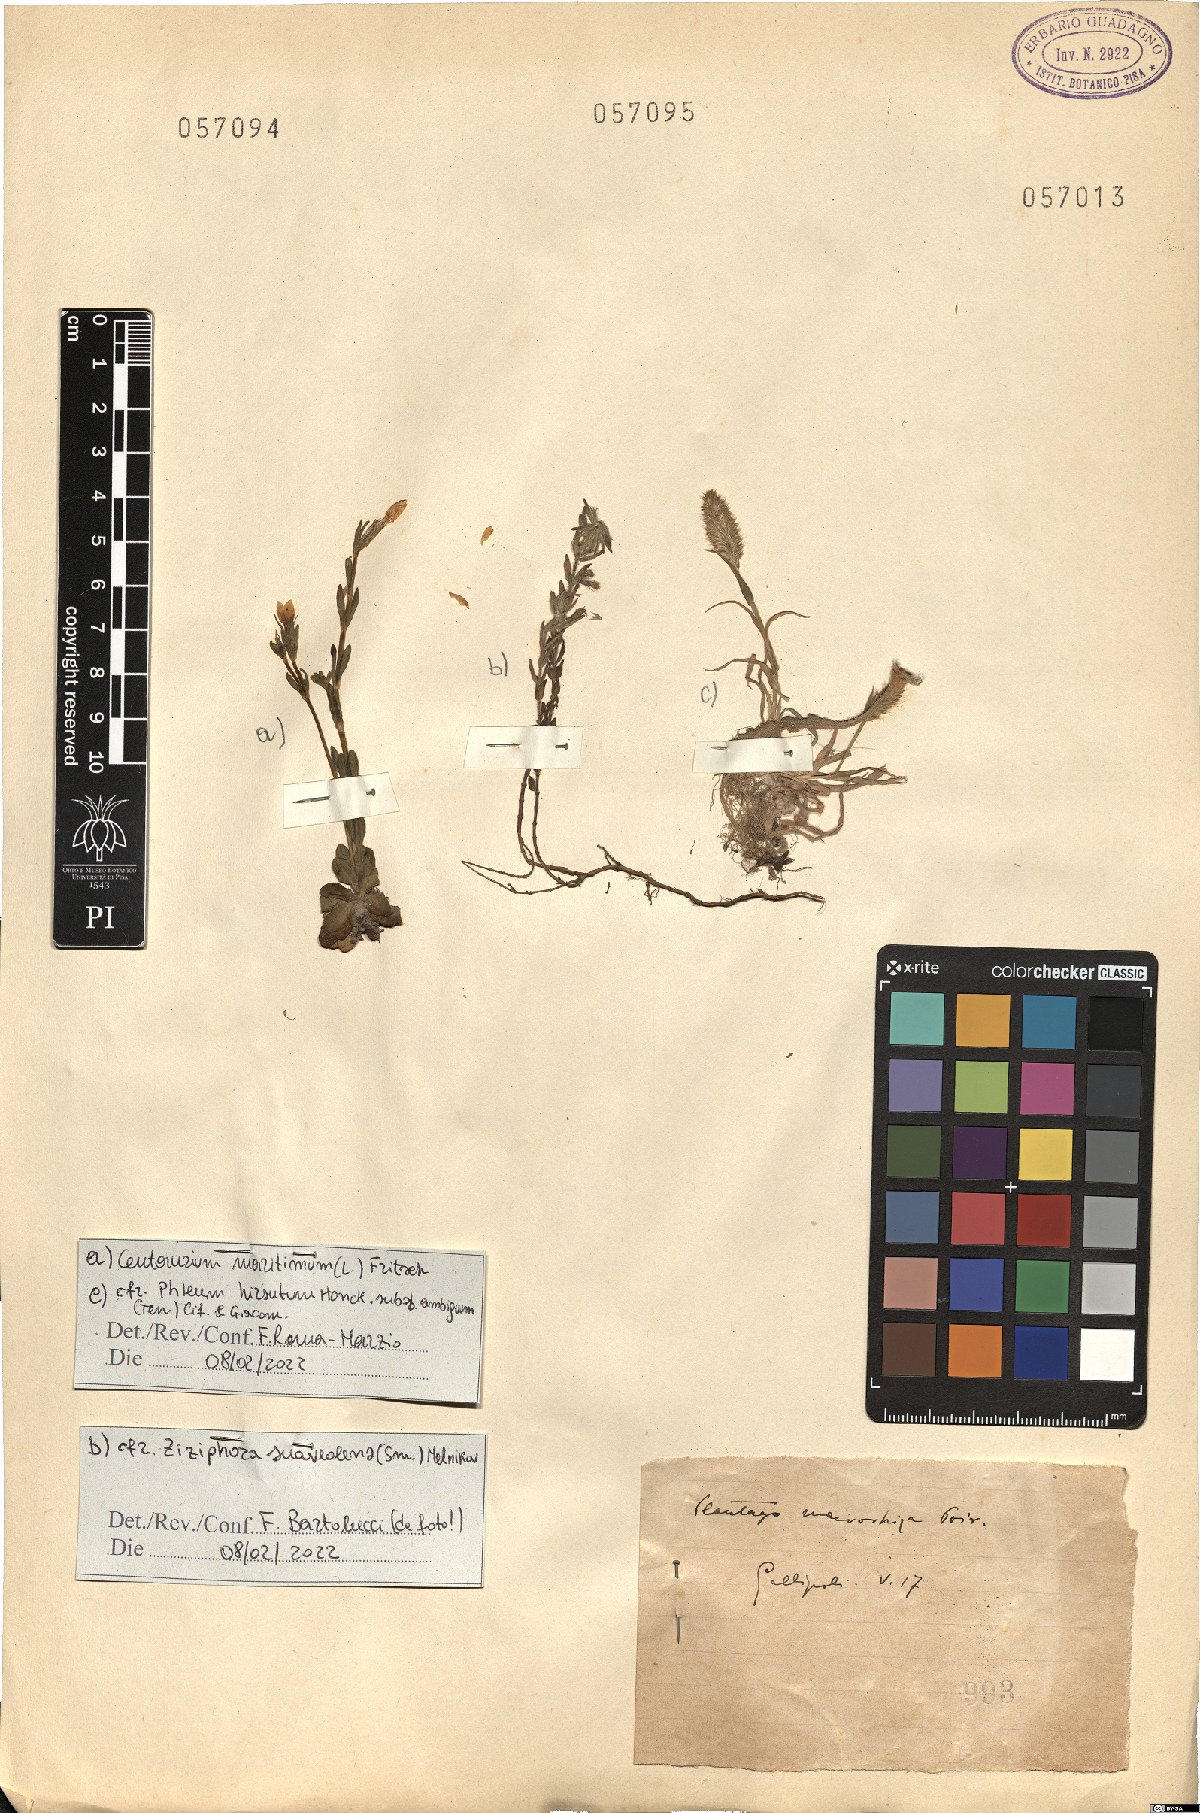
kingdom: Plantae
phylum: Tracheophyta
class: Magnoliopsida
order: Gentianales
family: Gentianaceae
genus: Centaurium
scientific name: Centaurium maritimum
